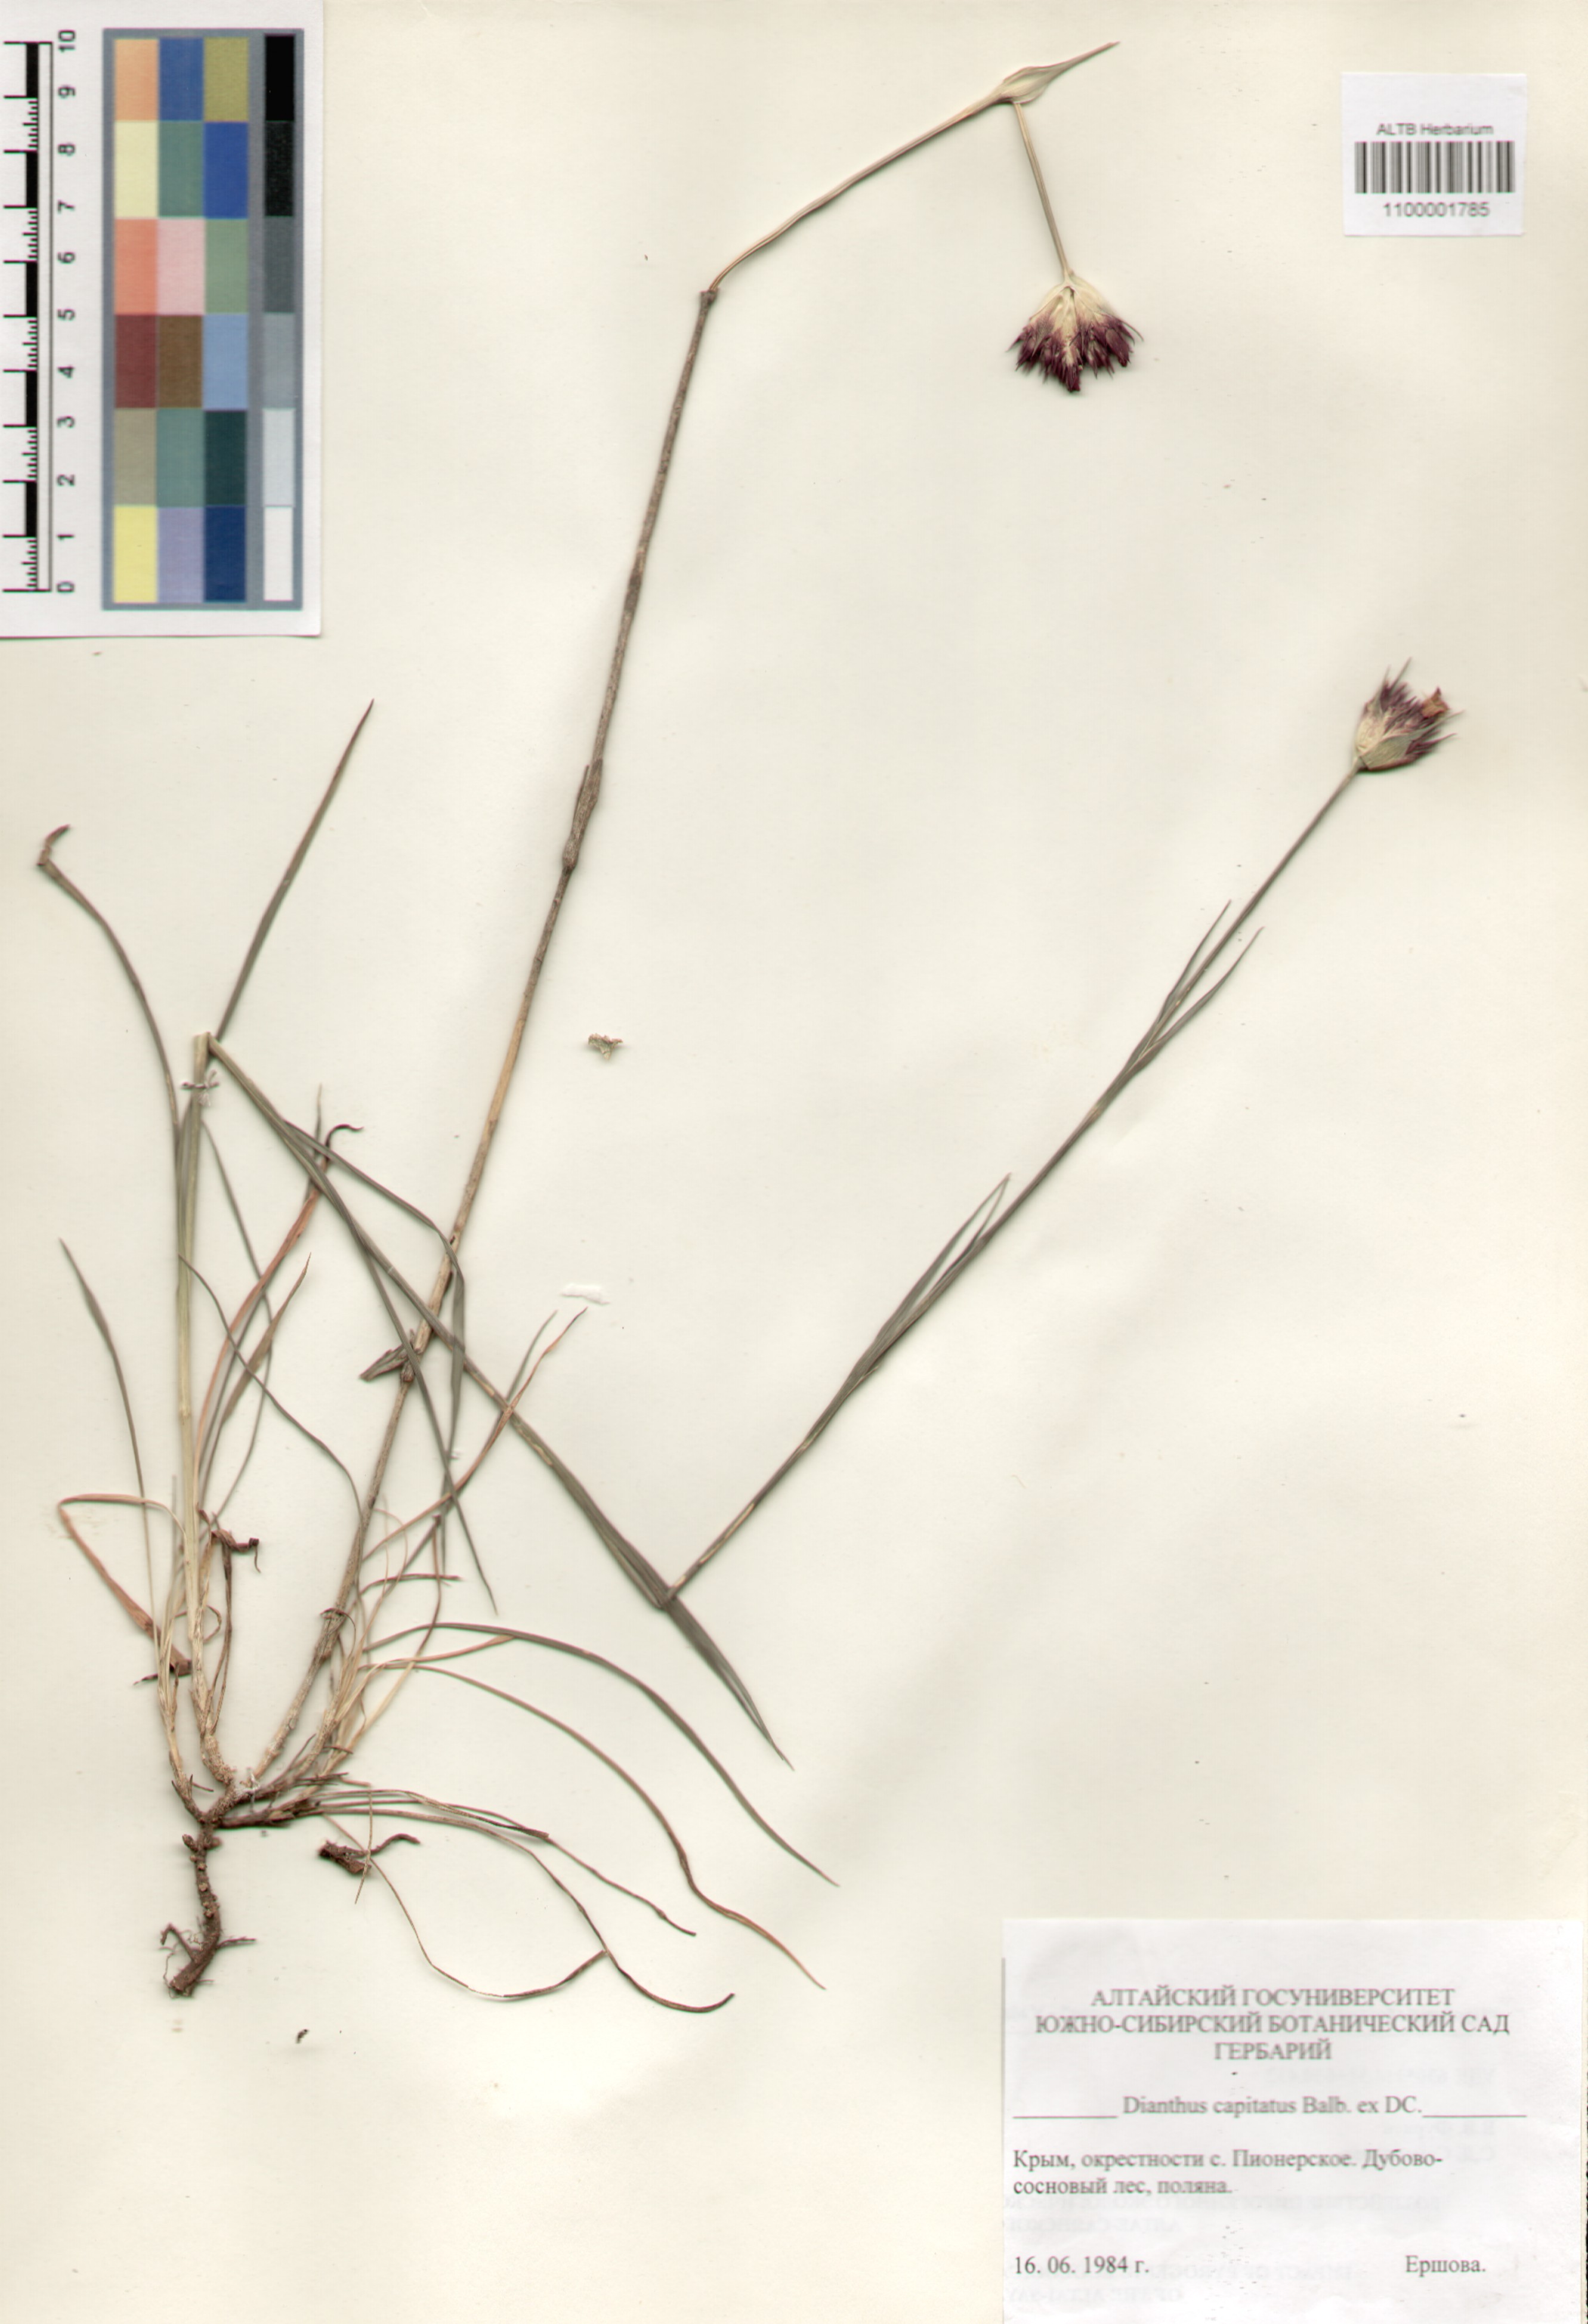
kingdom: Plantae
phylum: Tracheophyta
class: Magnoliopsida
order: Caryophyllales
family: Caryophyllaceae
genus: Dianthus
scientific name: Dianthus capitatus
